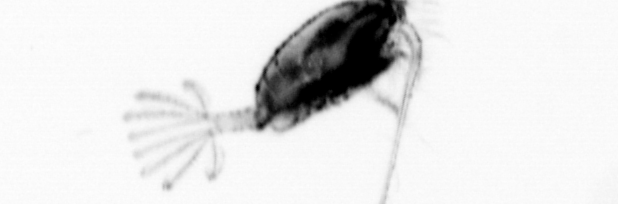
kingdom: Animalia
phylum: Arthropoda
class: Copepoda
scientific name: Copepoda
